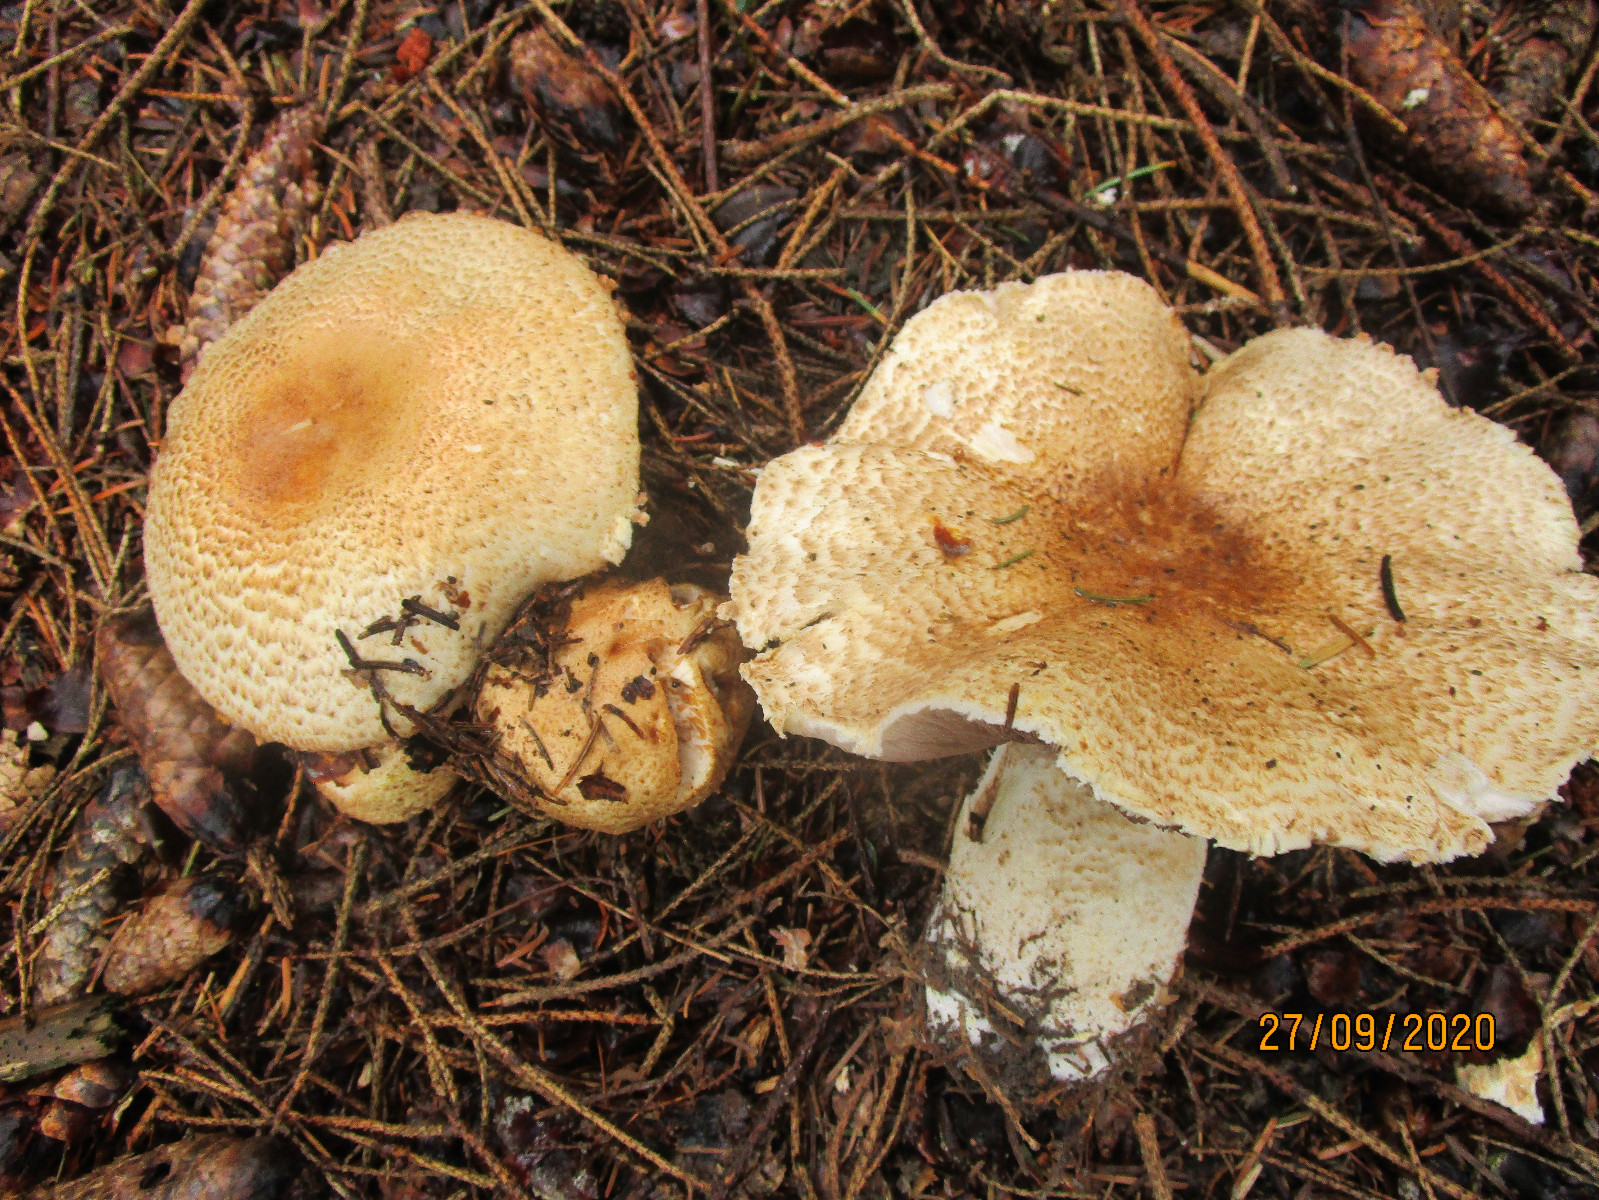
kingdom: Fungi
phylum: Basidiomycota
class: Agaricomycetes
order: Agaricales
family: Agaricaceae
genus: Agaricus
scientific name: Agaricus augustus
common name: prægtig champignon
